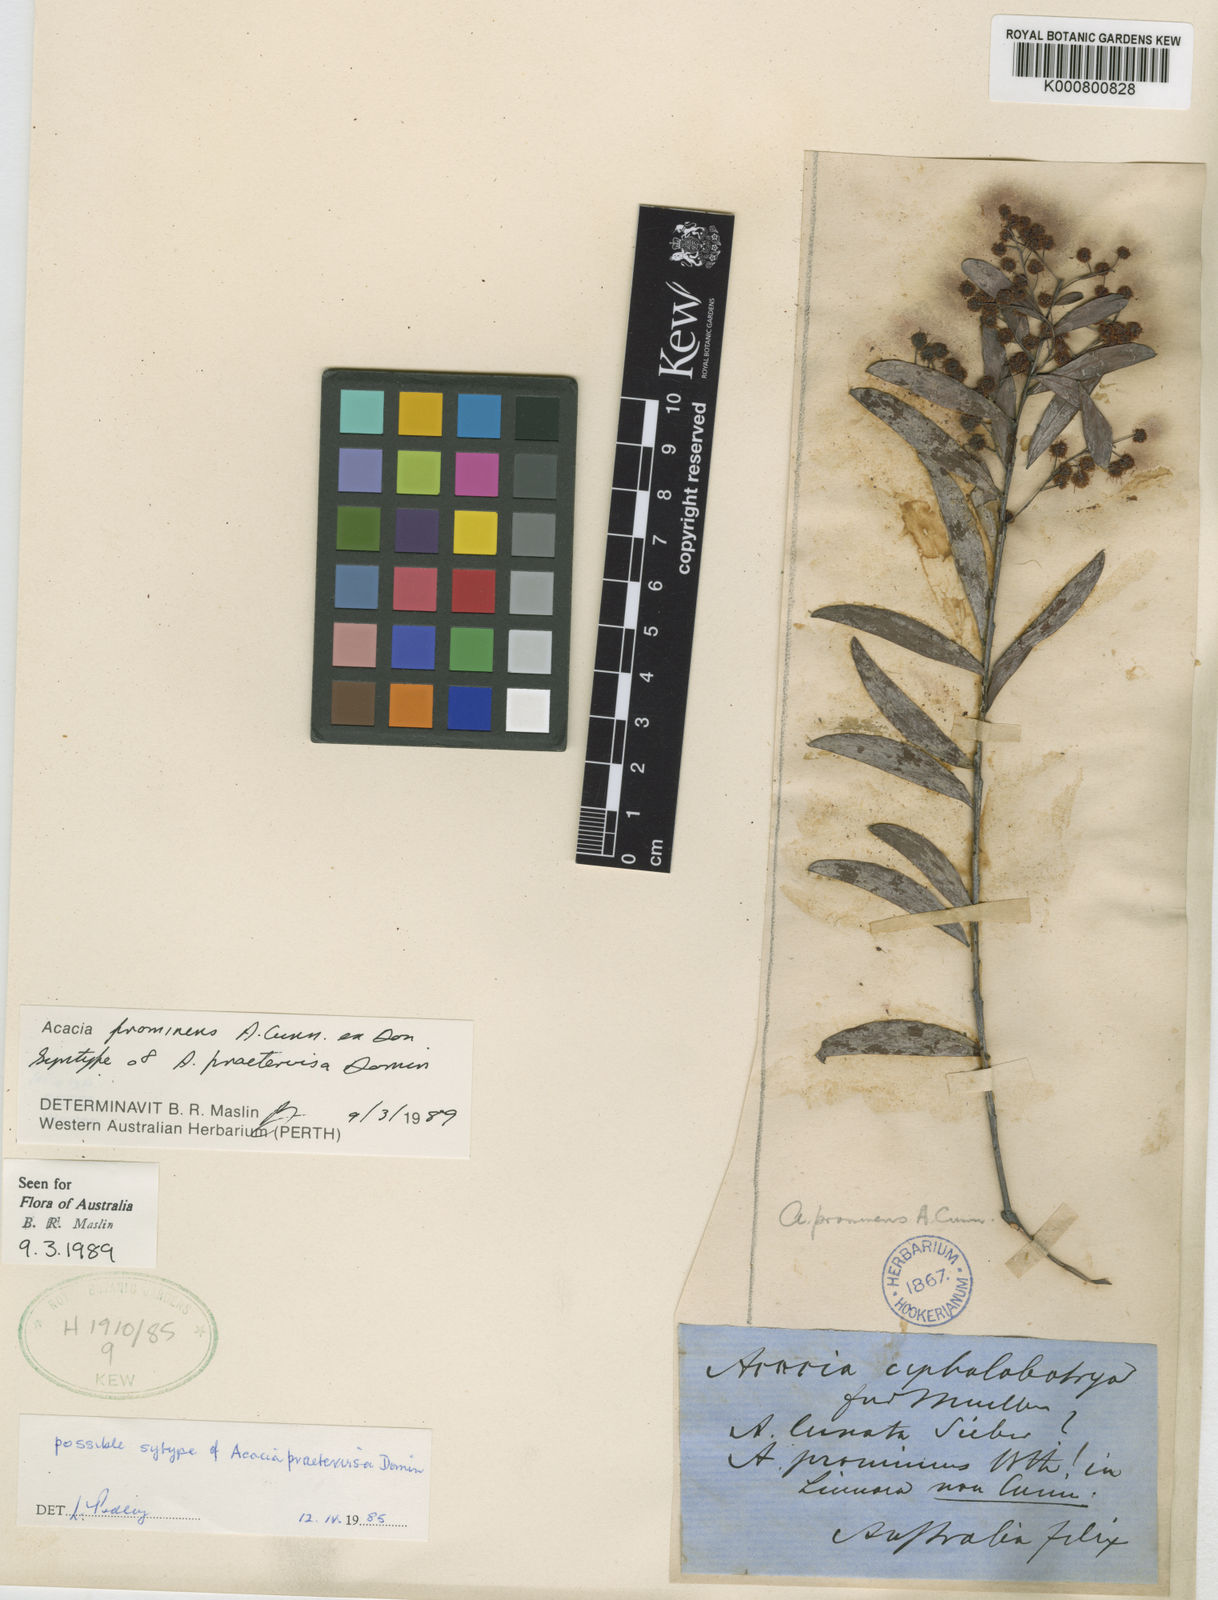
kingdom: Plantae
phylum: Tracheophyta
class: Magnoliopsida
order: Fabales
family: Fabaceae
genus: Acacia
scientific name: Acacia prominens
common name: Gosford wattle
